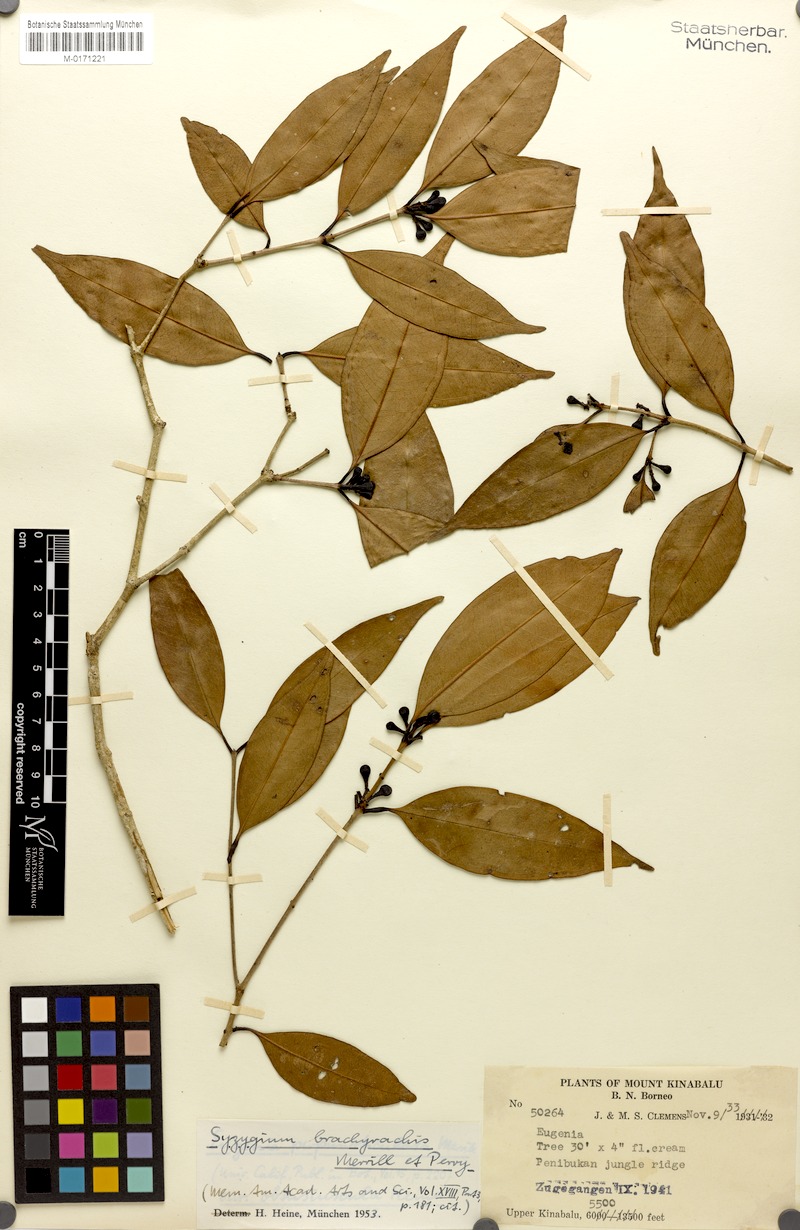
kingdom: Plantae
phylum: Tracheophyta
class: Magnoliopsida
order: Myrtales
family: Myrtaceae
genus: Syzygium
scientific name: Syzygium brachyrachis
